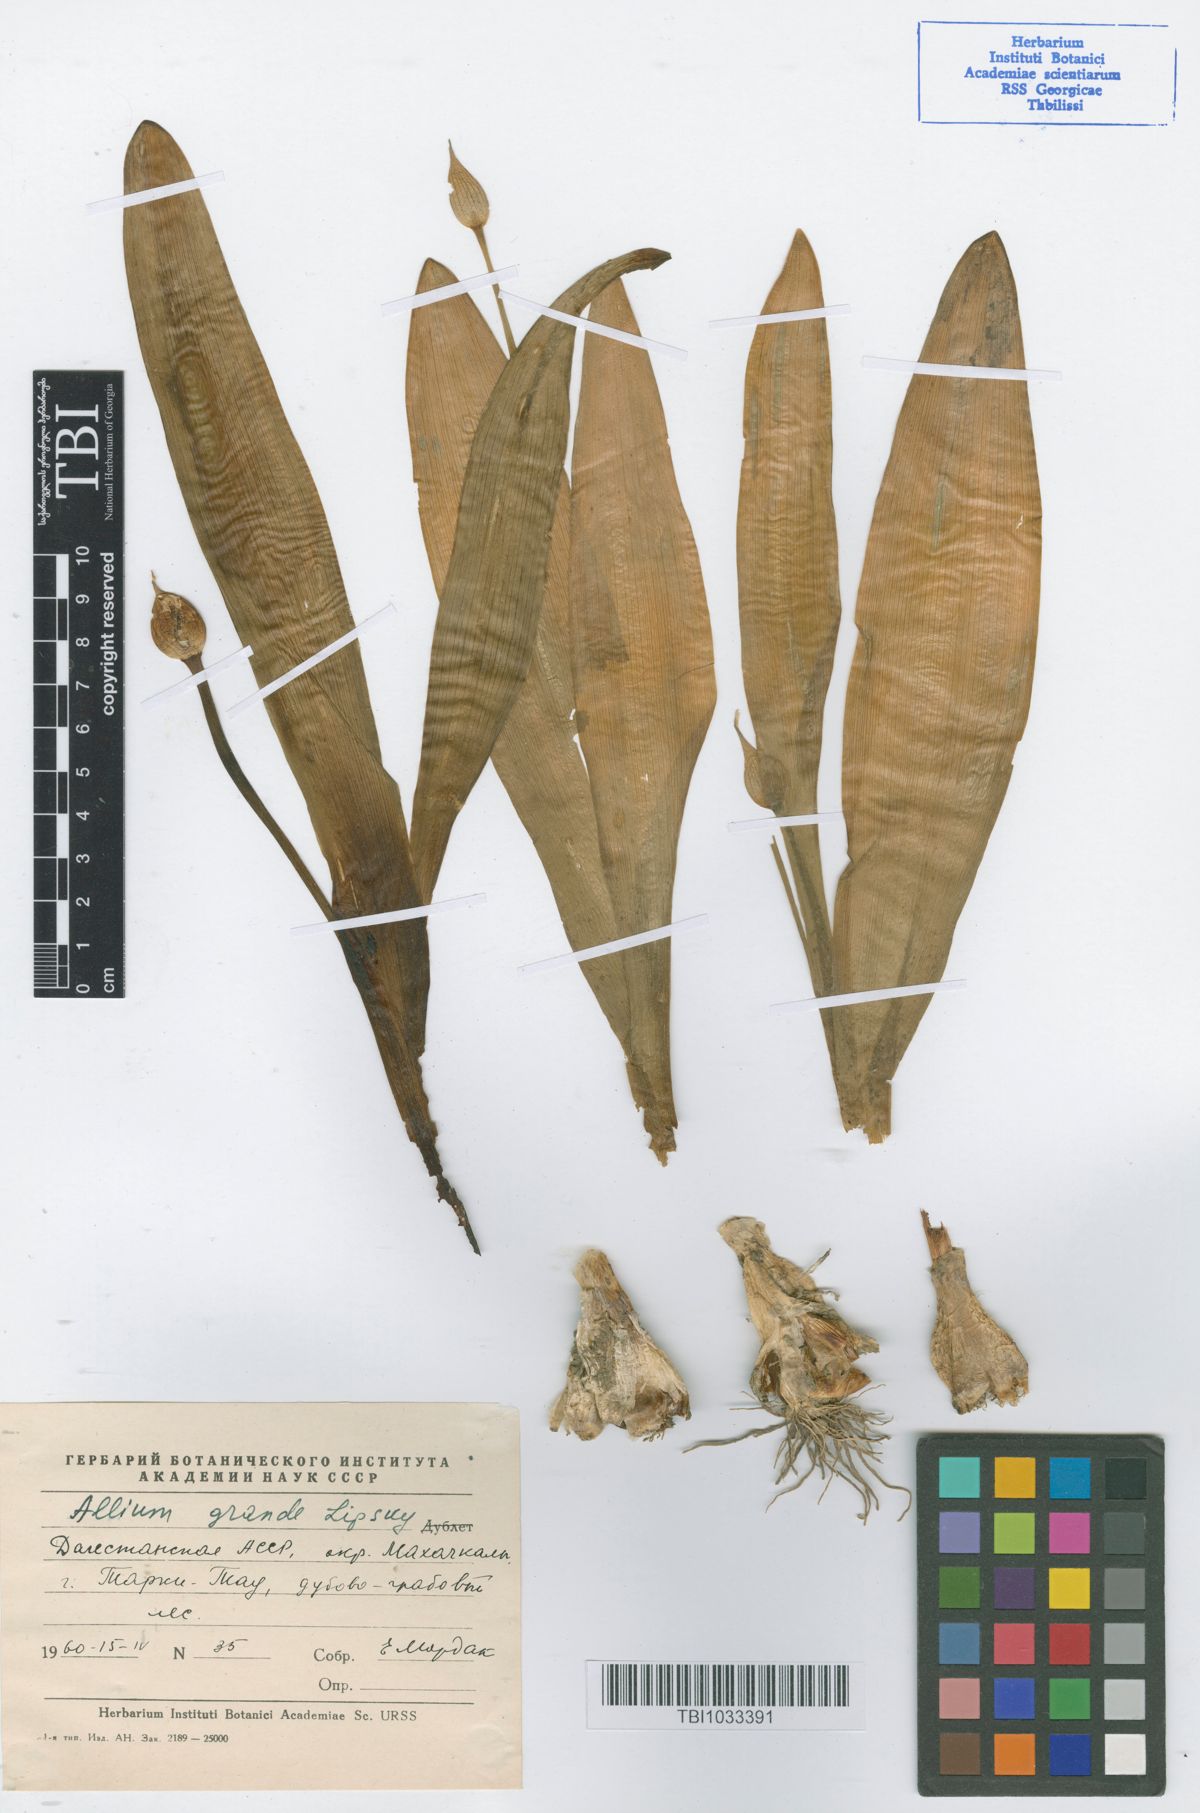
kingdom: Plantae
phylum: Tracheophyta
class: Liliopsida
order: Asparagales
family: Amaryllidaceae
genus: Allium
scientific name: Allium grande
